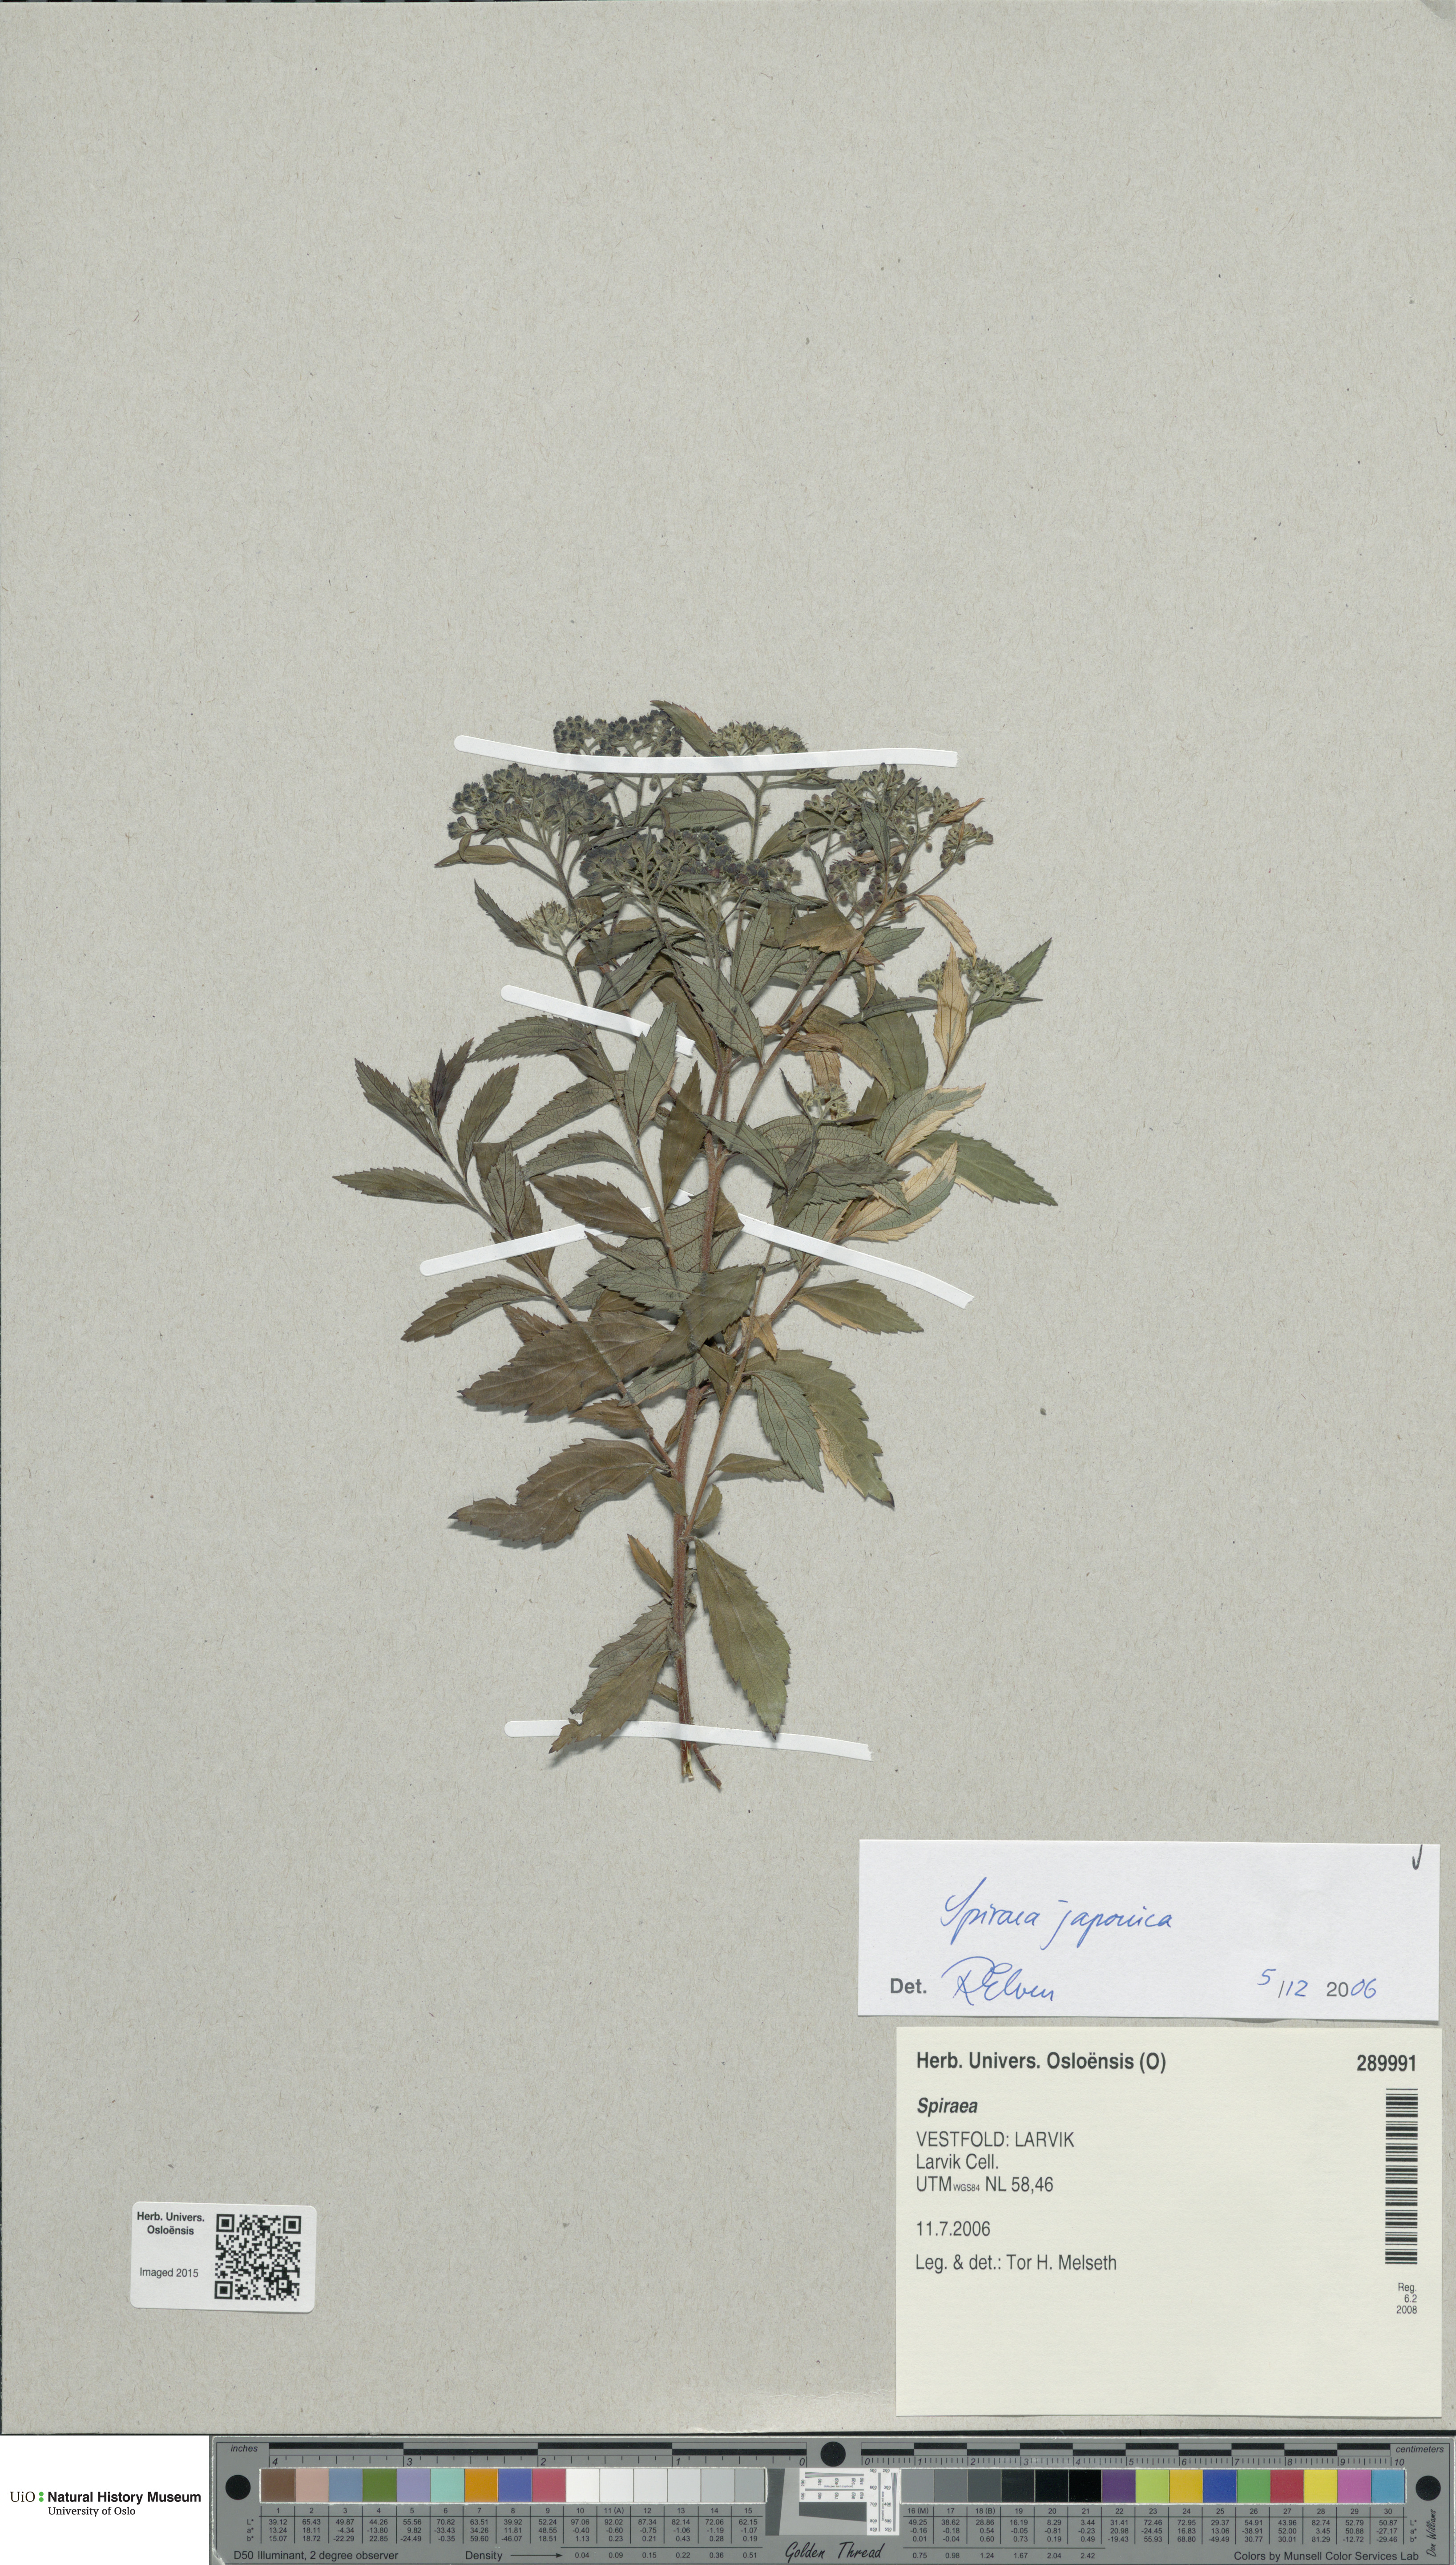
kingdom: Plantae
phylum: Tracheophyta
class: Magnoliopsida
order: Rosales
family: Rosaceae
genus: Spiraea
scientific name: Spiraea japonica
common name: Japanese spiraea
